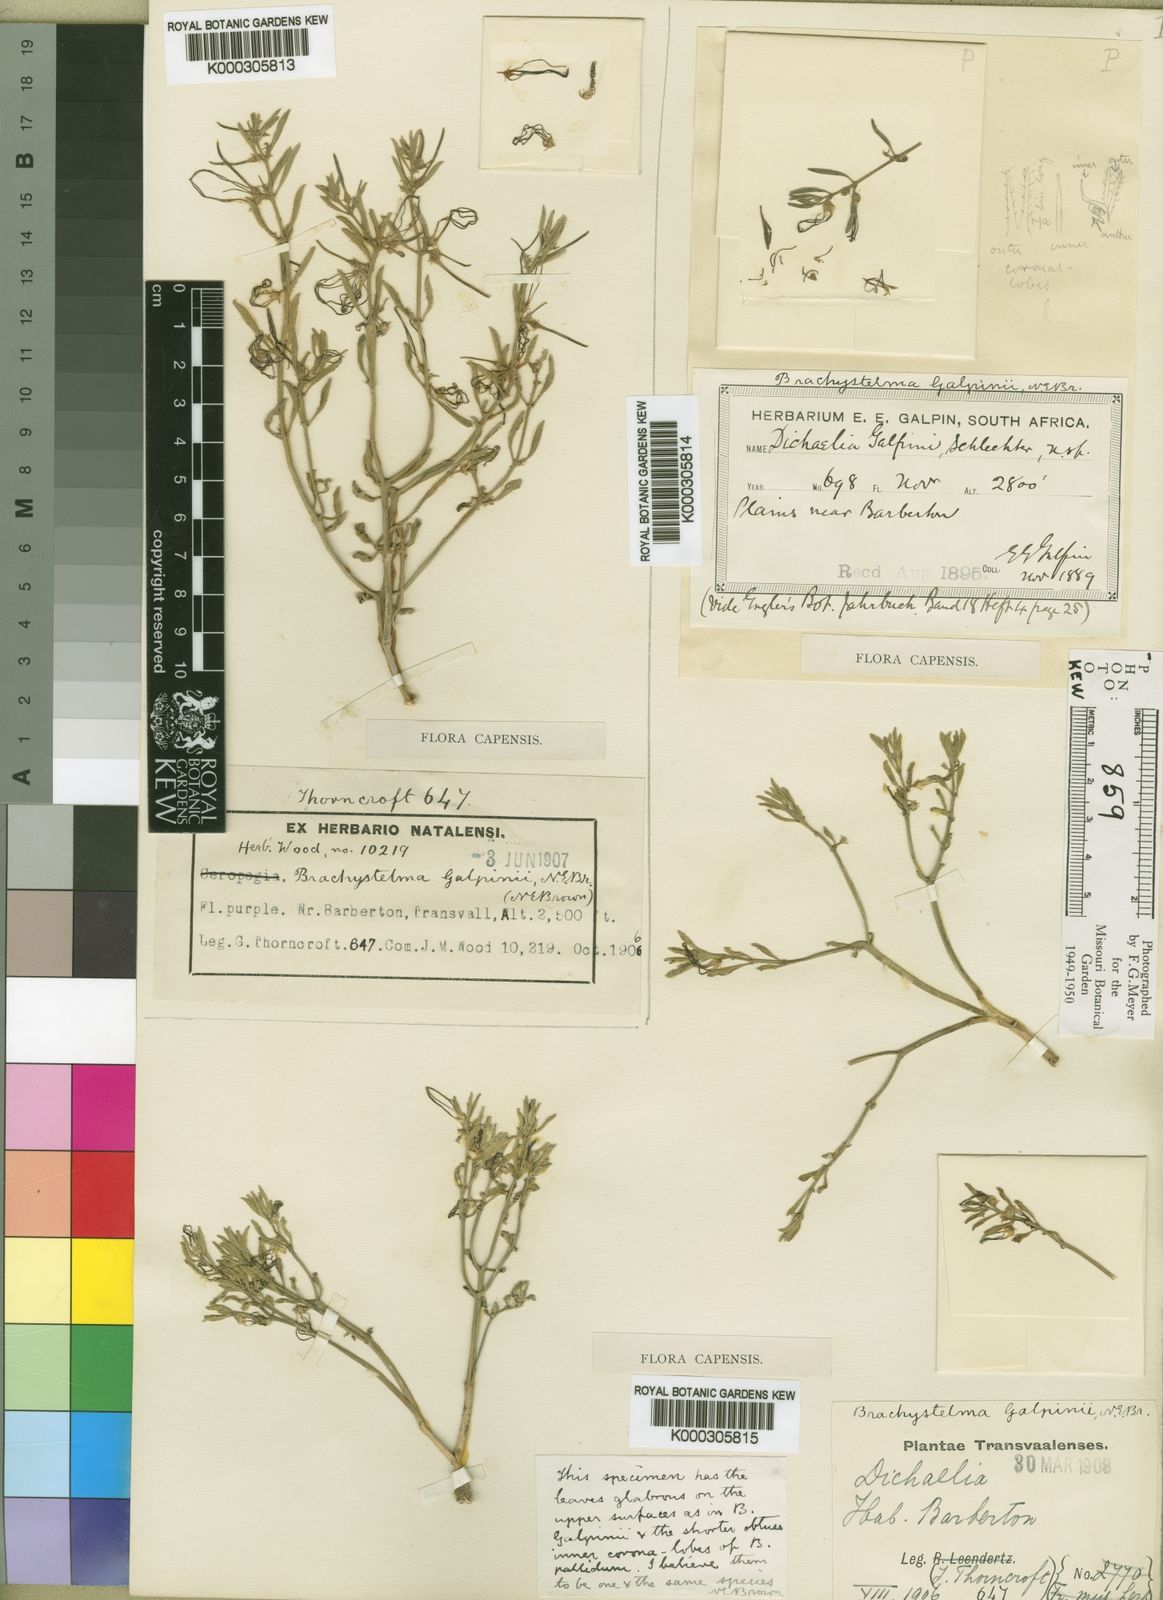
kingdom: Plantae
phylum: Tracheophyta
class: Magnoliopsida
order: Gentianales
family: Apocynaceae
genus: Ceropegia
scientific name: Ceropegia circinata
